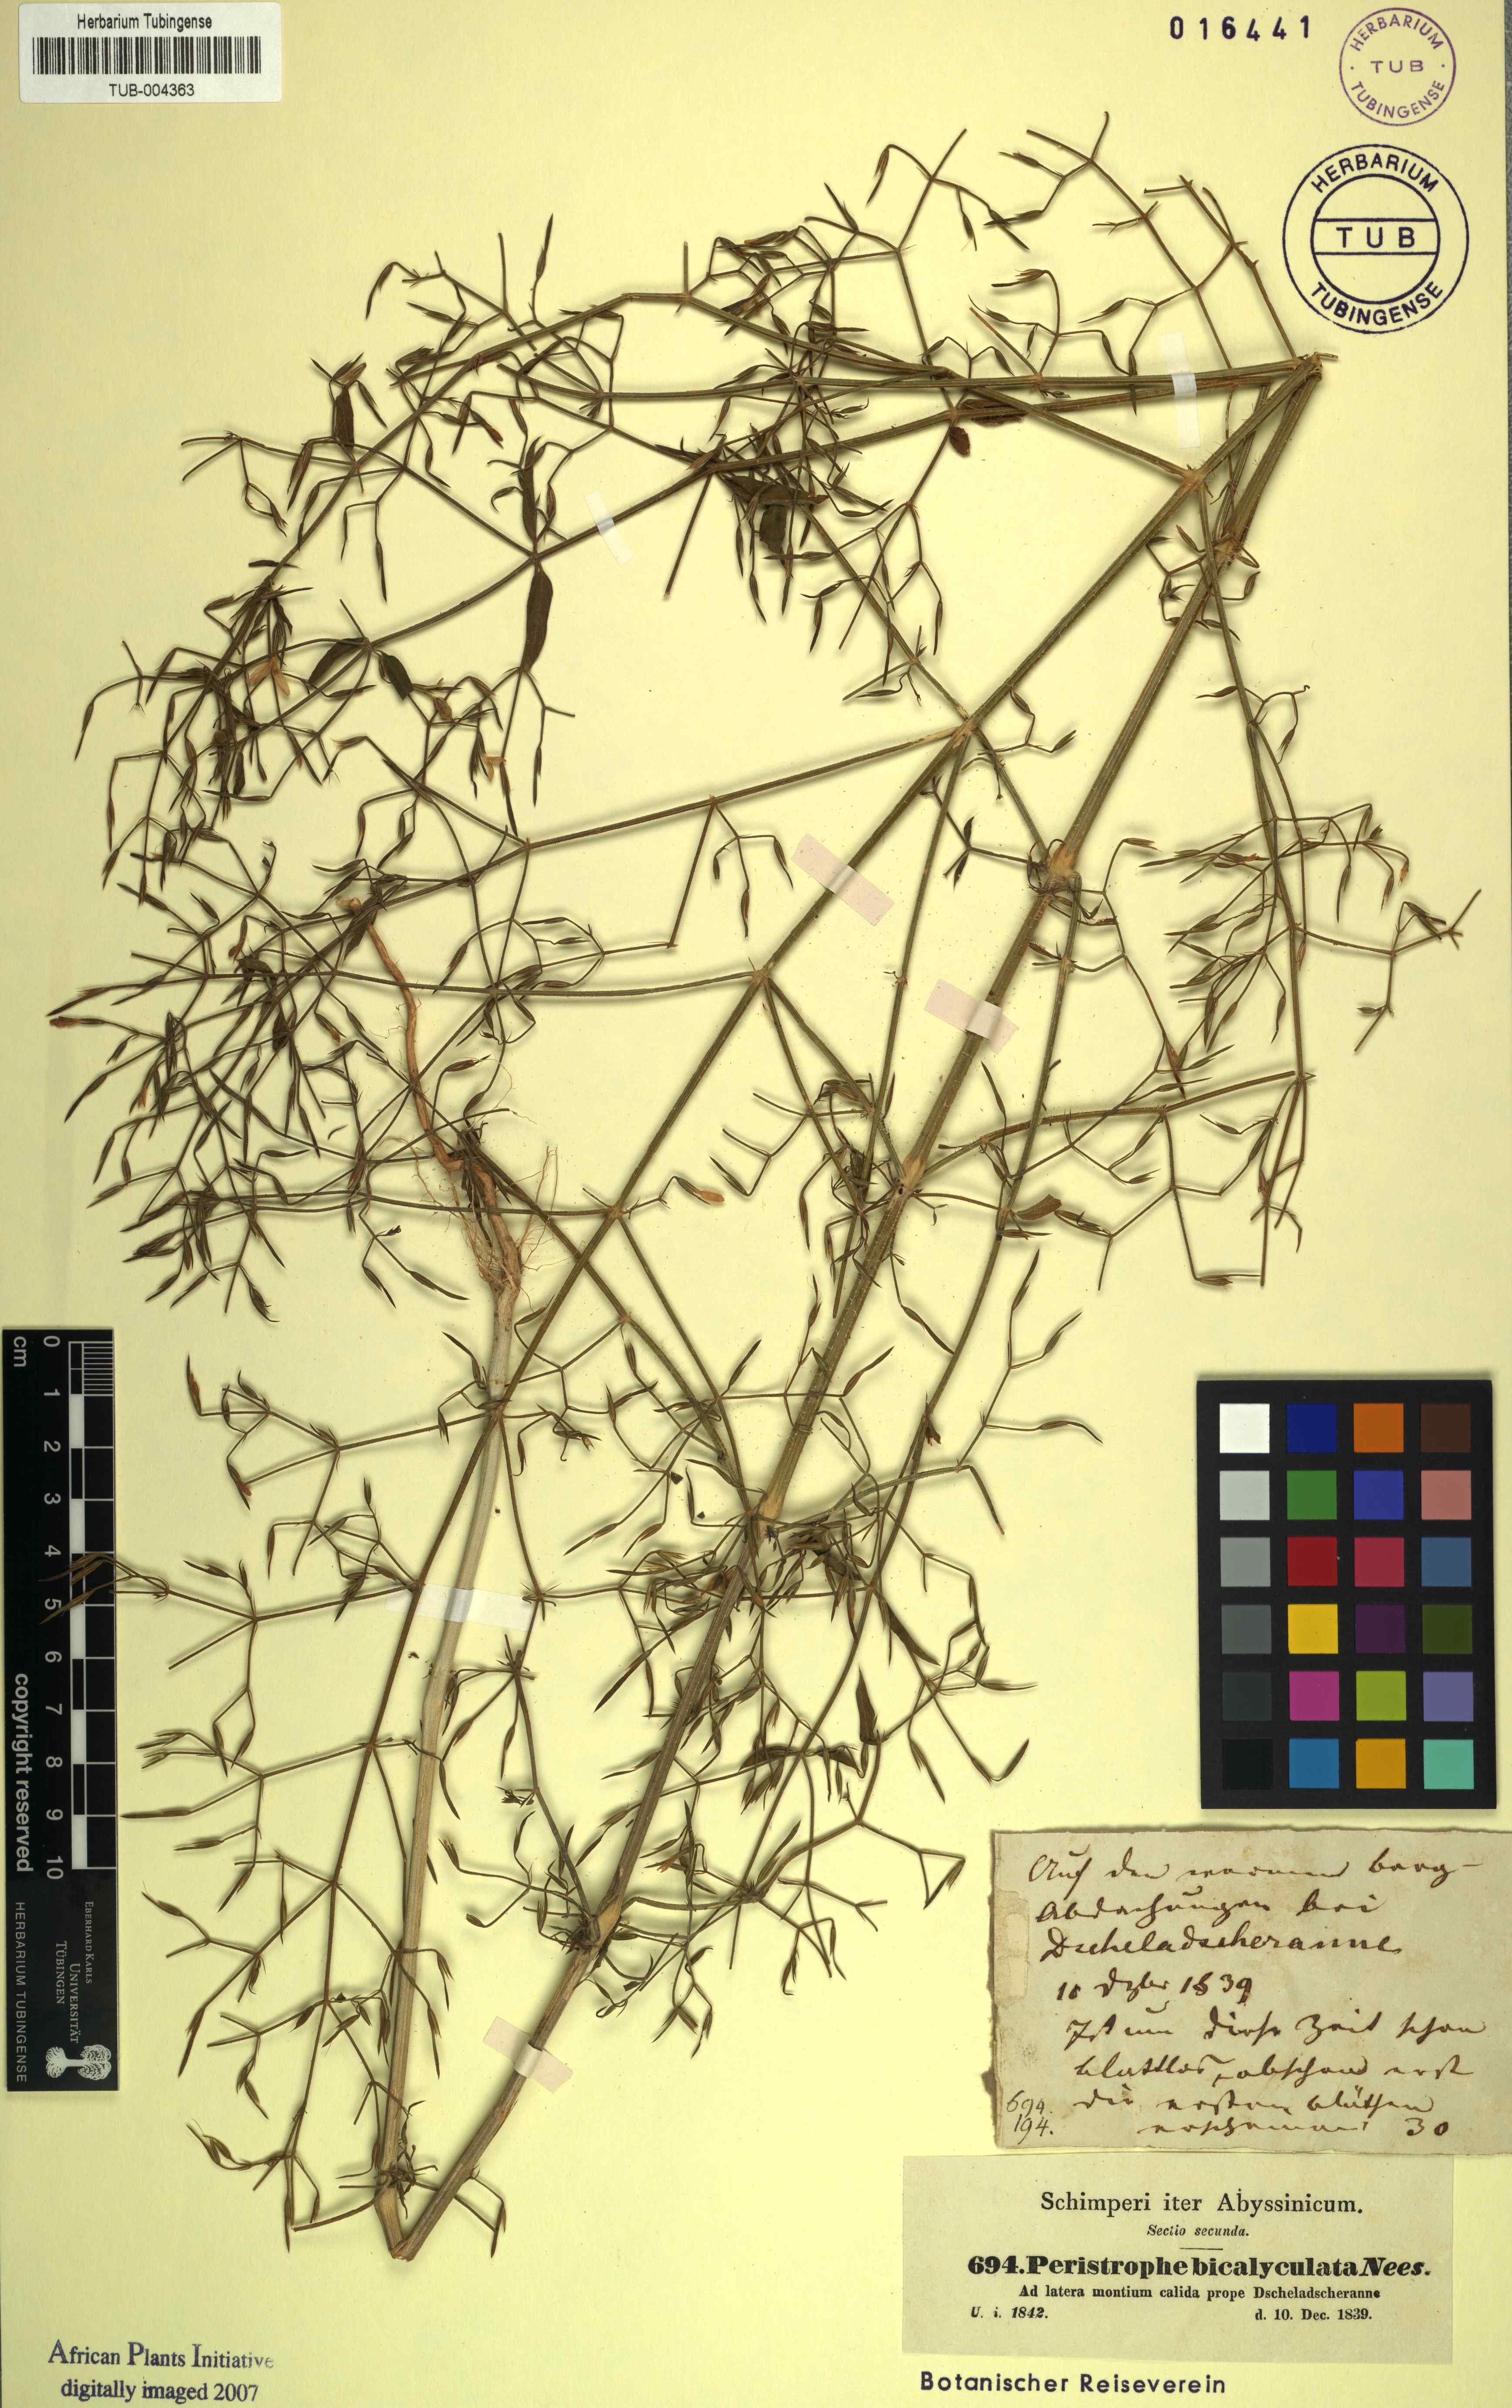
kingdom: Plantae
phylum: Tracheophyta
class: Magnoliopsida
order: Lamiales
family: Acanthaceae
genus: Dicliptera
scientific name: Dicliptera paniculata
